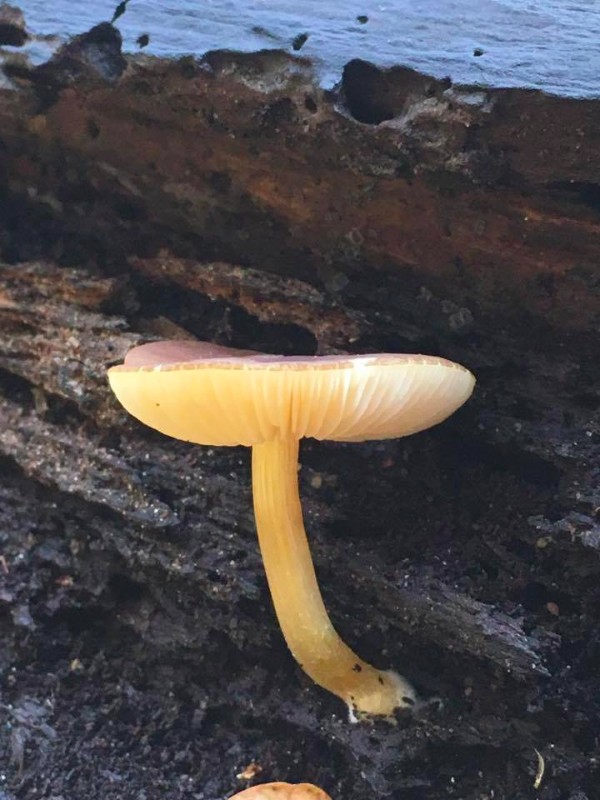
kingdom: Fungi
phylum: Basidiomycota
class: Agaricomycetes
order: Agaricales
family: Pluteaceae
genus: Pluteus
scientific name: Pluteus romellii
